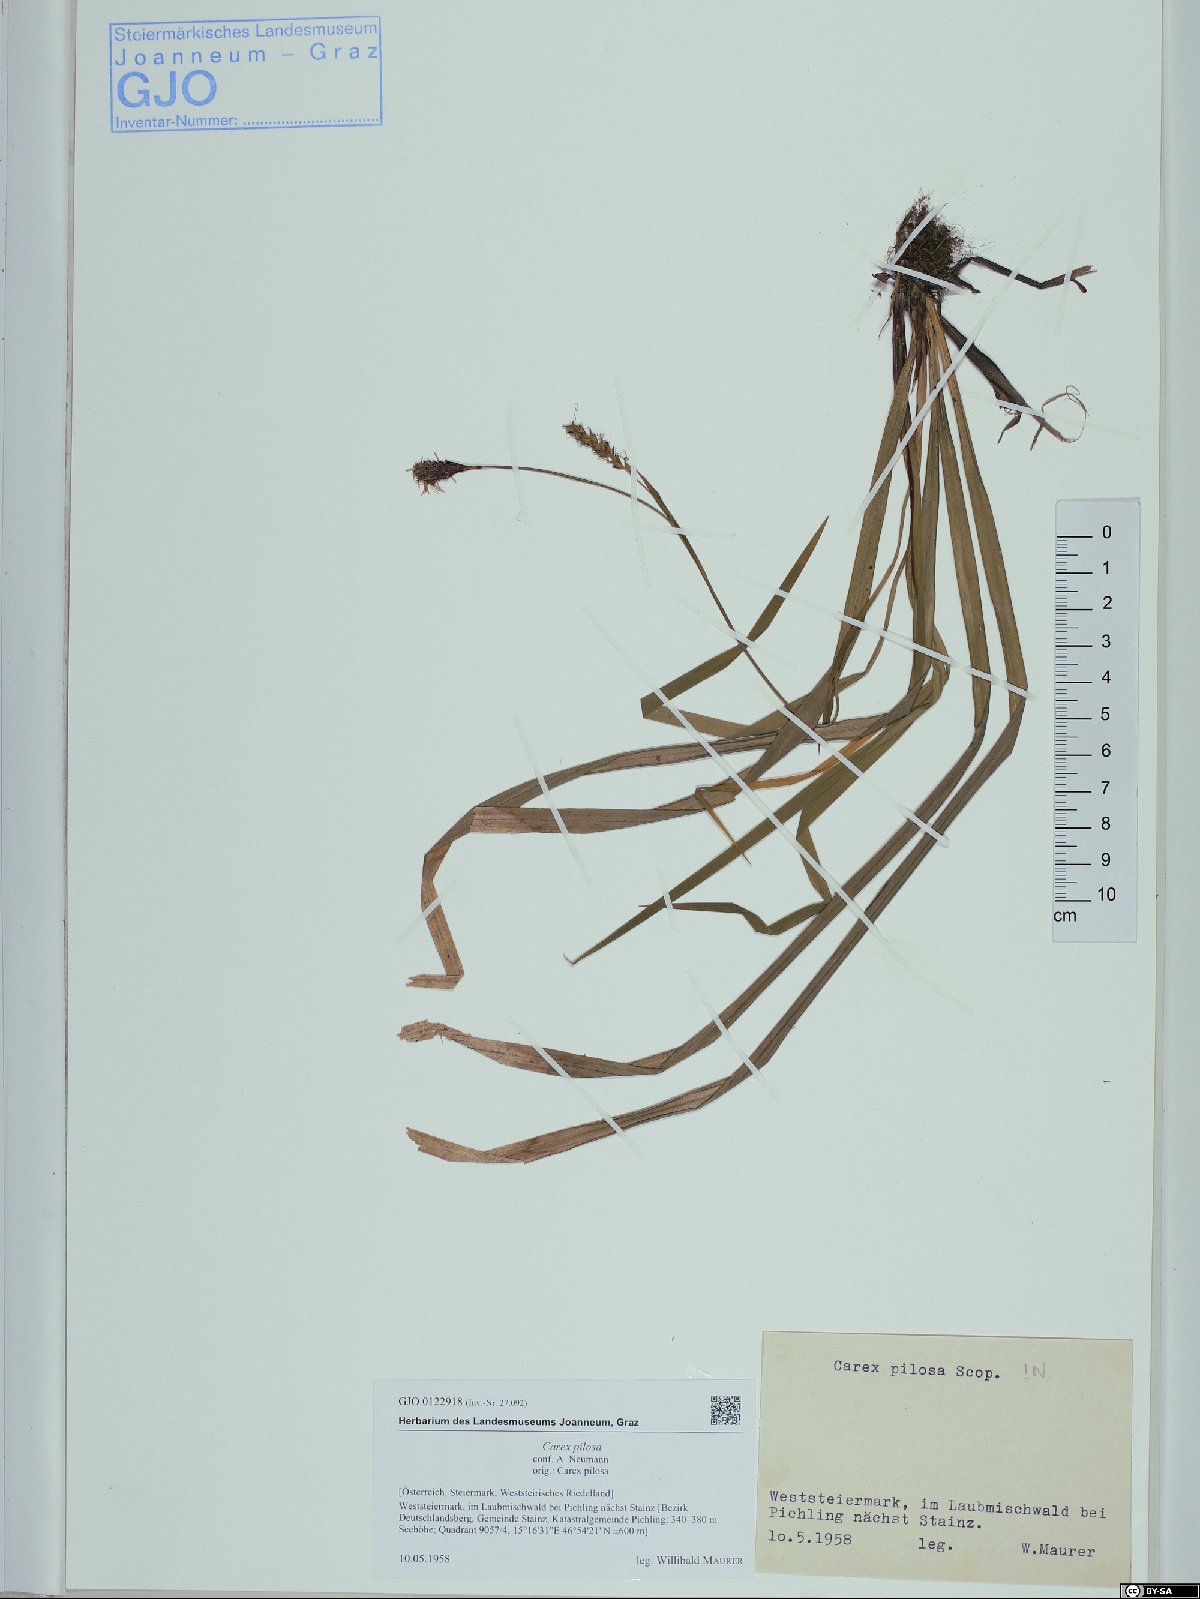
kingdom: Plantae
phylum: Tracheophyta
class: Liliopsida
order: Poales
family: Cyperaceae
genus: Carex
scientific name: Carex pilosa
